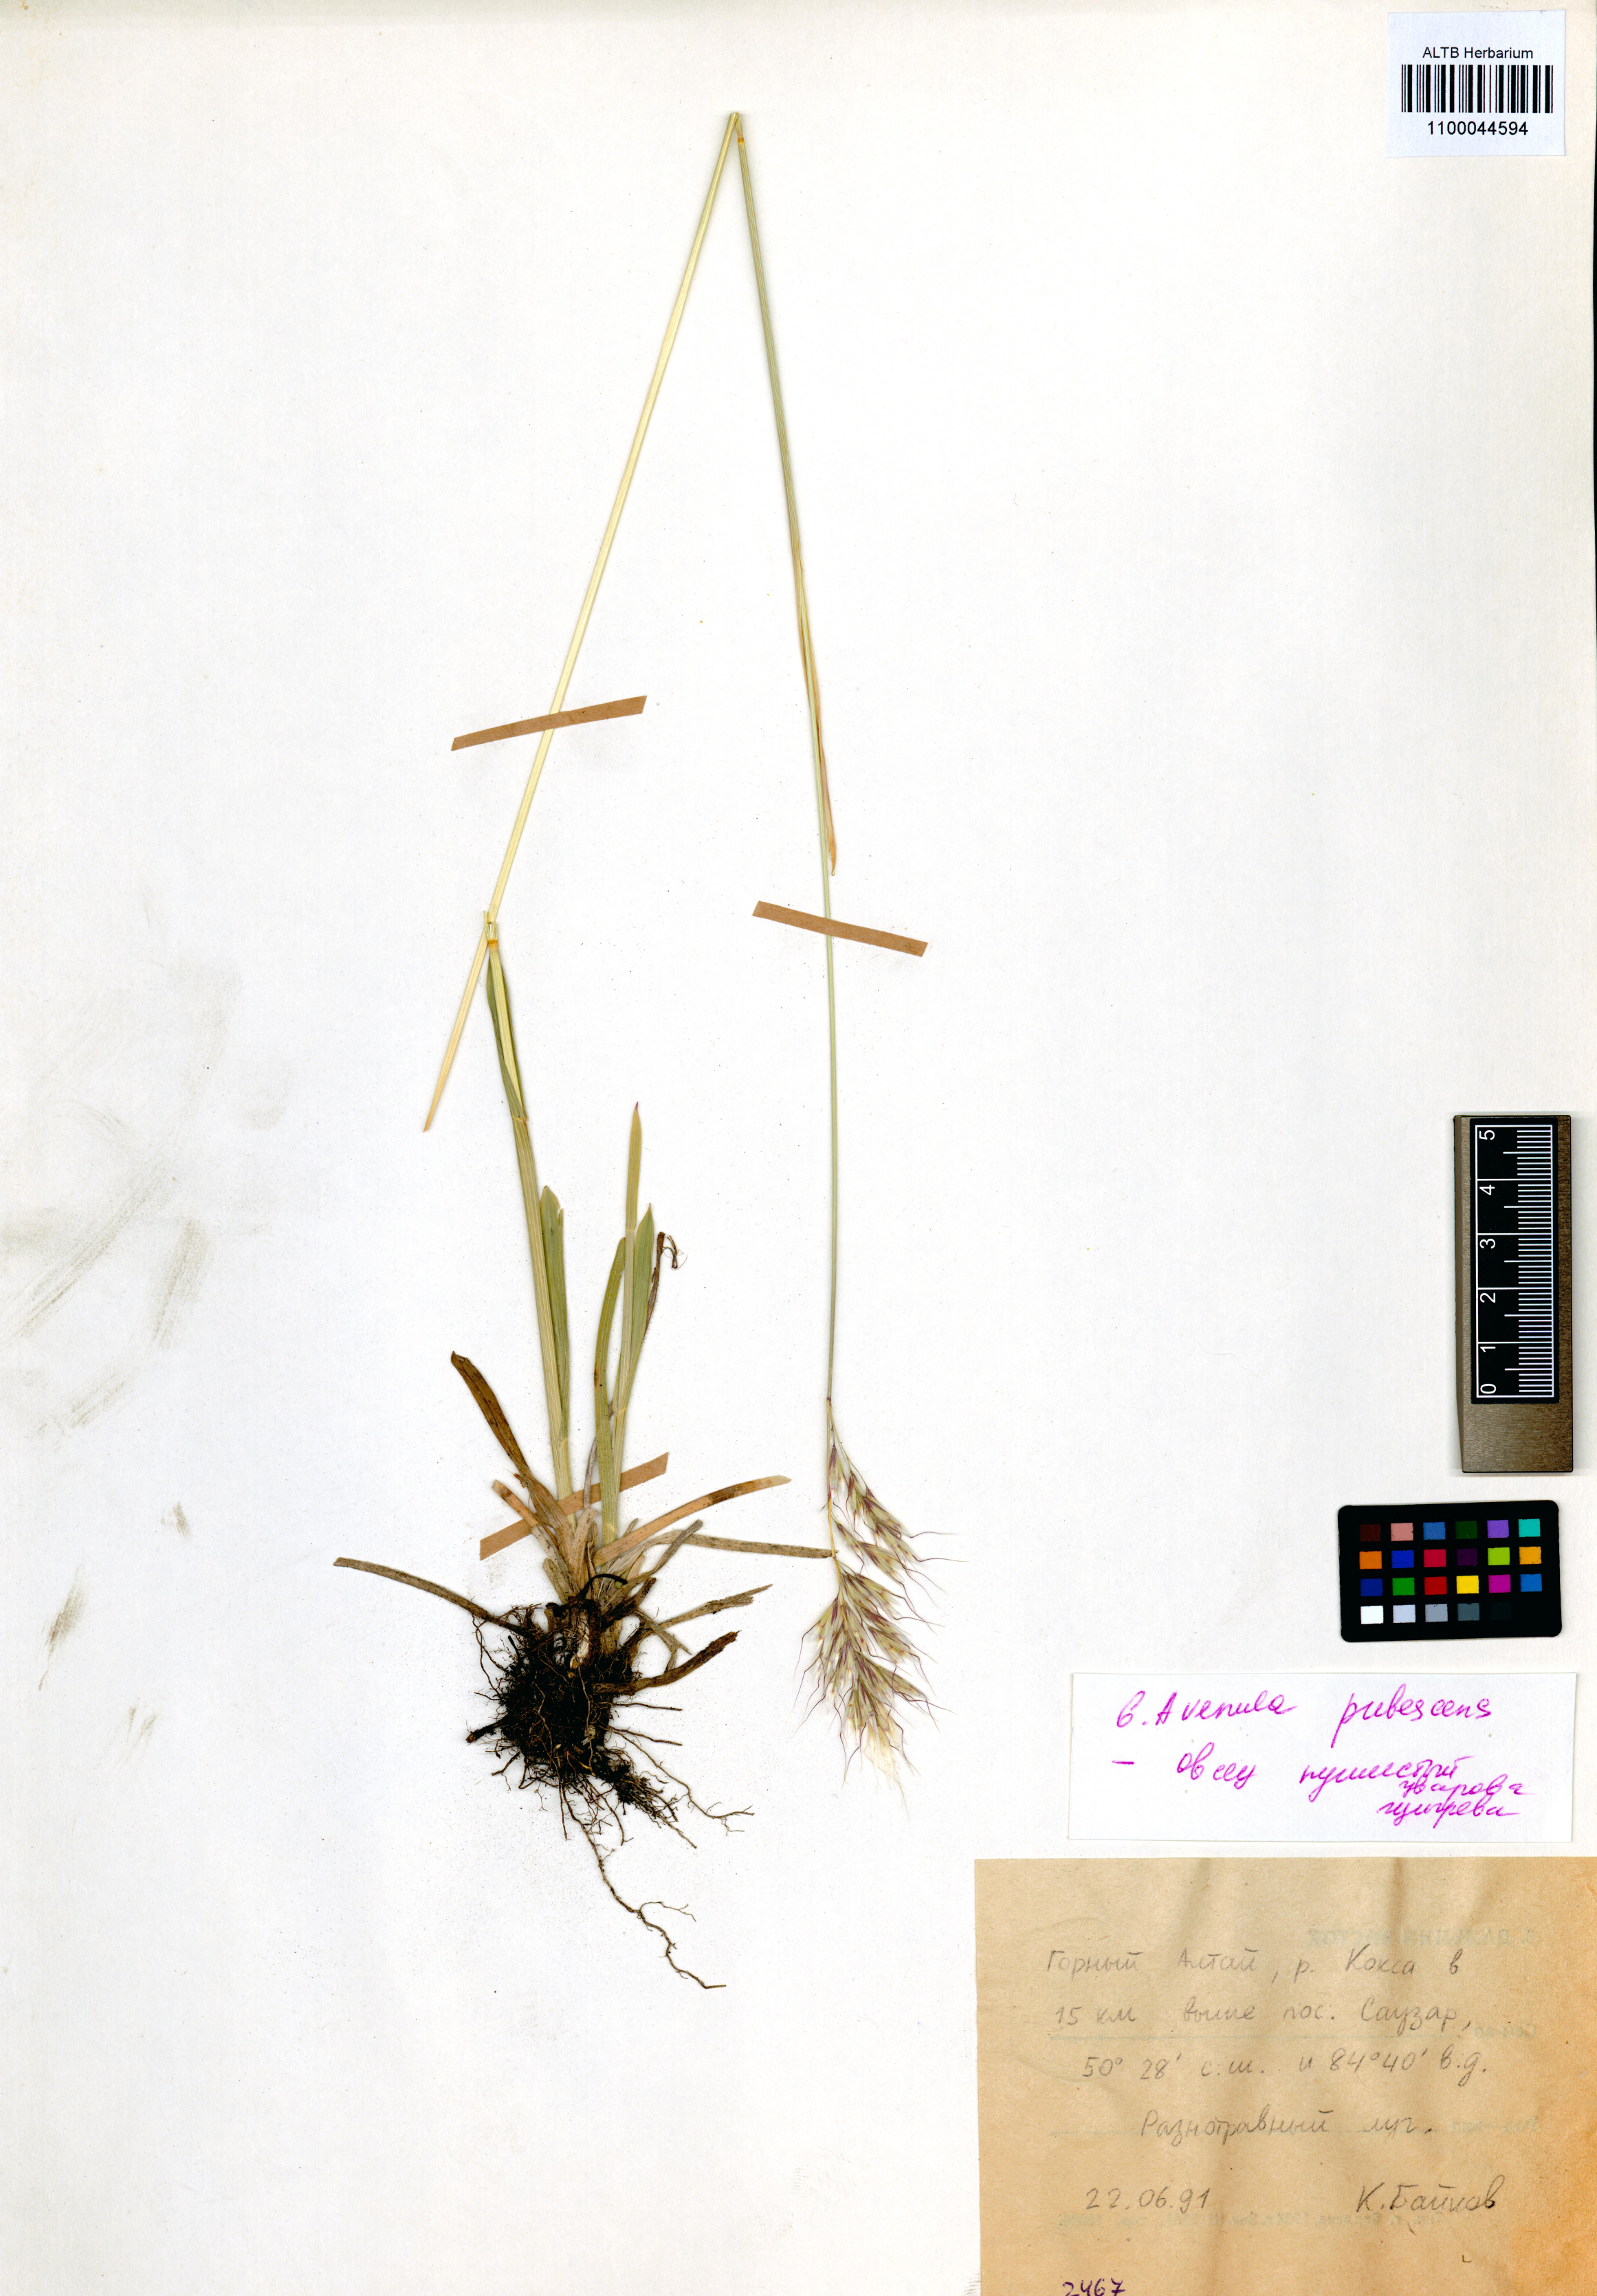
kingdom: Plantae
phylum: Tracheophyta
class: Liliopsida
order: Poales
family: Poaceae
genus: Avenula
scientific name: Avenula pubescens
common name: Downy alpine oatgrass
